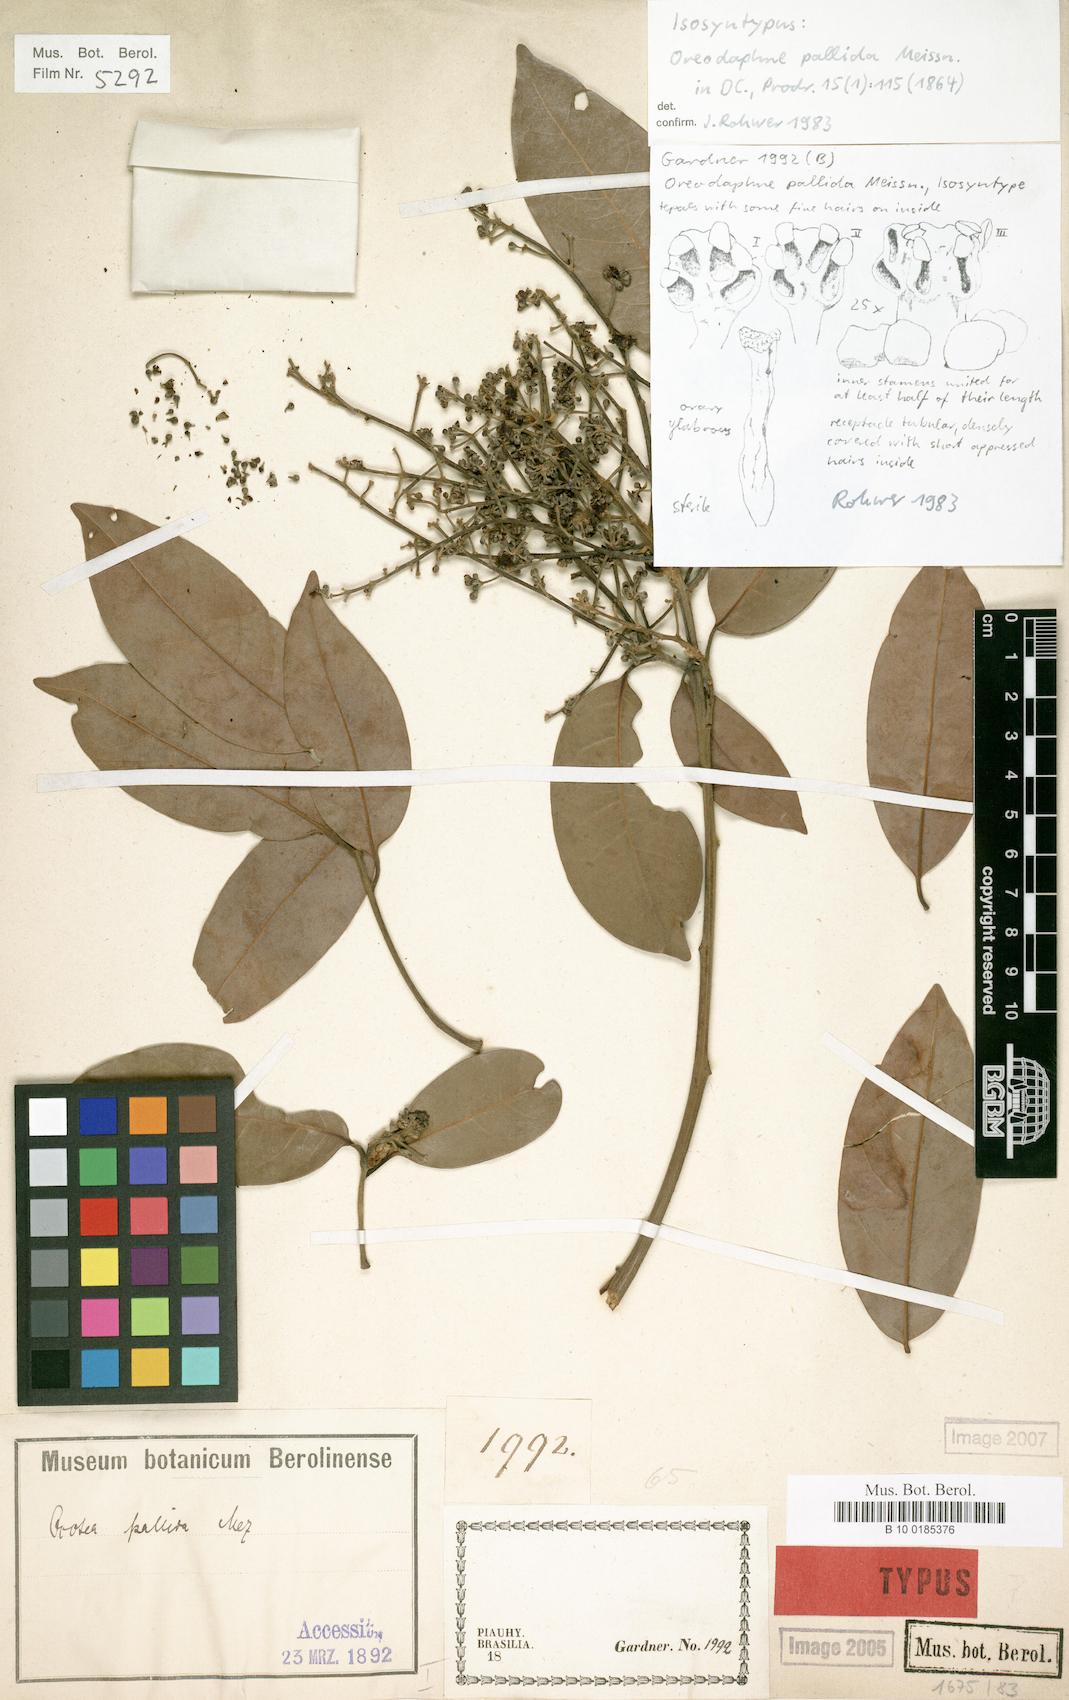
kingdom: Plantae
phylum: Tracheophyta
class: Magnoliopsida
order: Laurales
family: Lauraceae
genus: Ocotea
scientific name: Ocotea nitida
